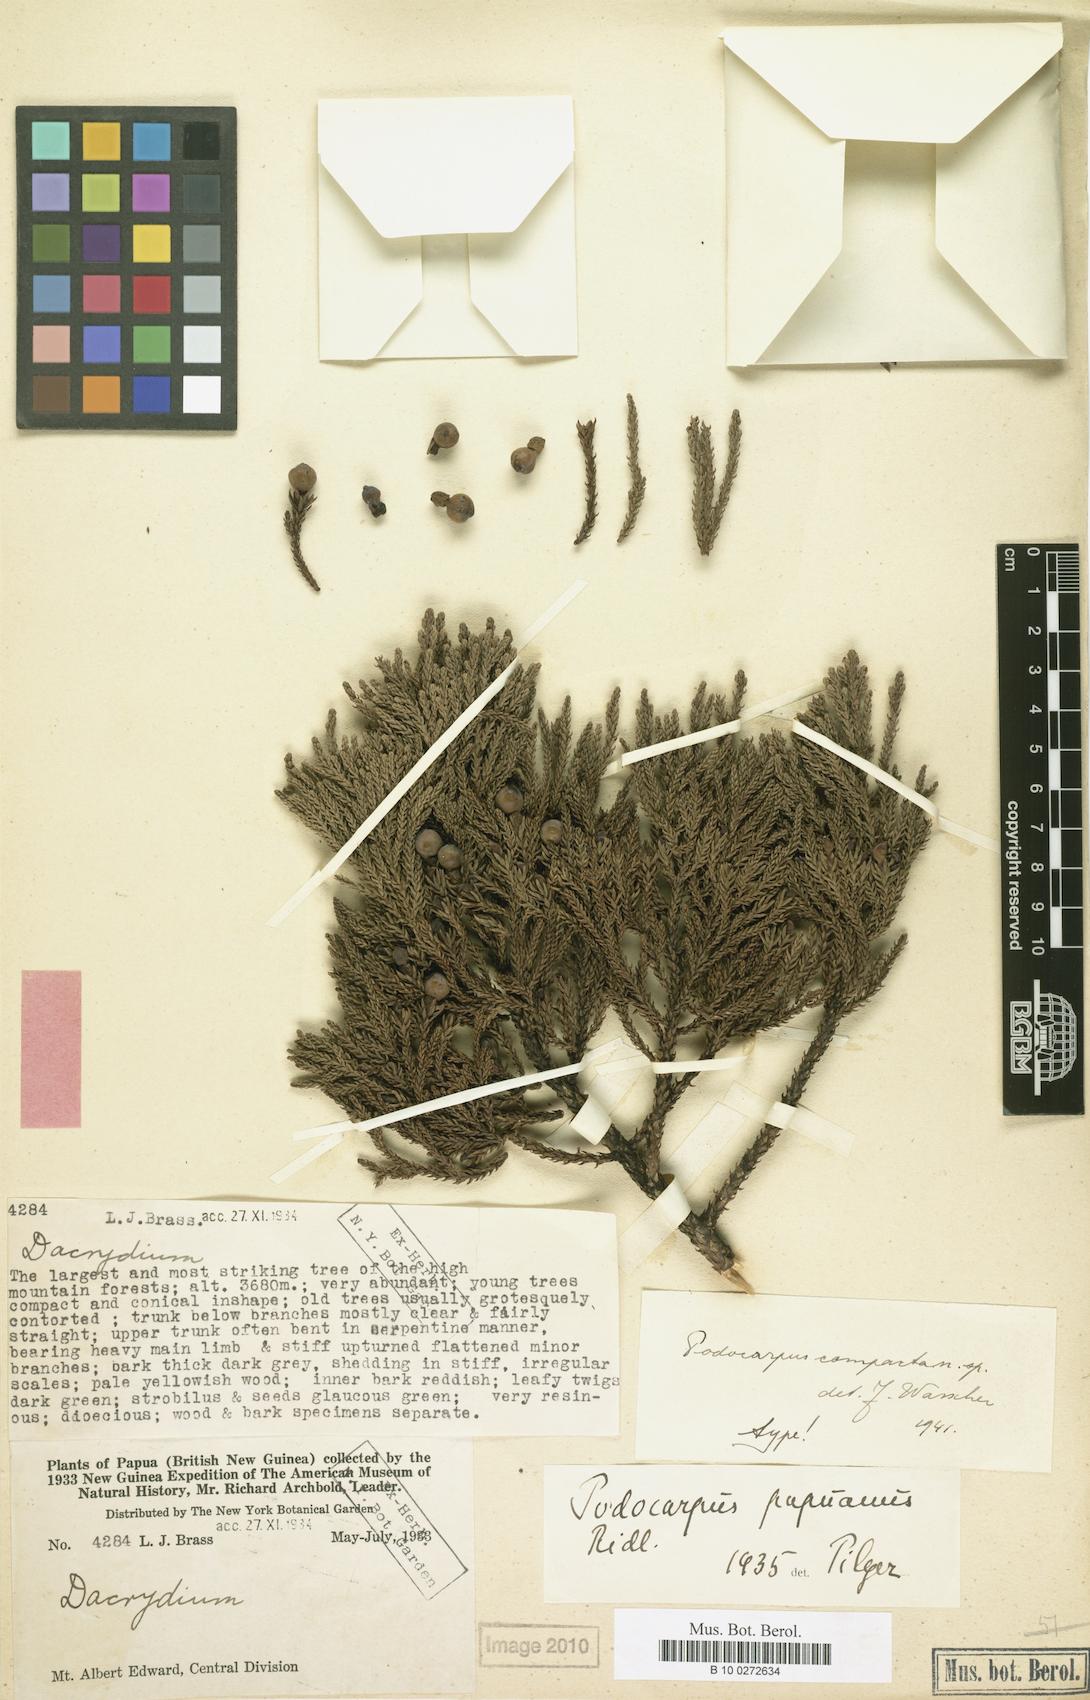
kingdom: Plantae
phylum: Tracheophyta
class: Pinopsida
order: Pinales
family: Podocarpaceae
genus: Dacrycarpus
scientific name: Dacrycarpus compactus
